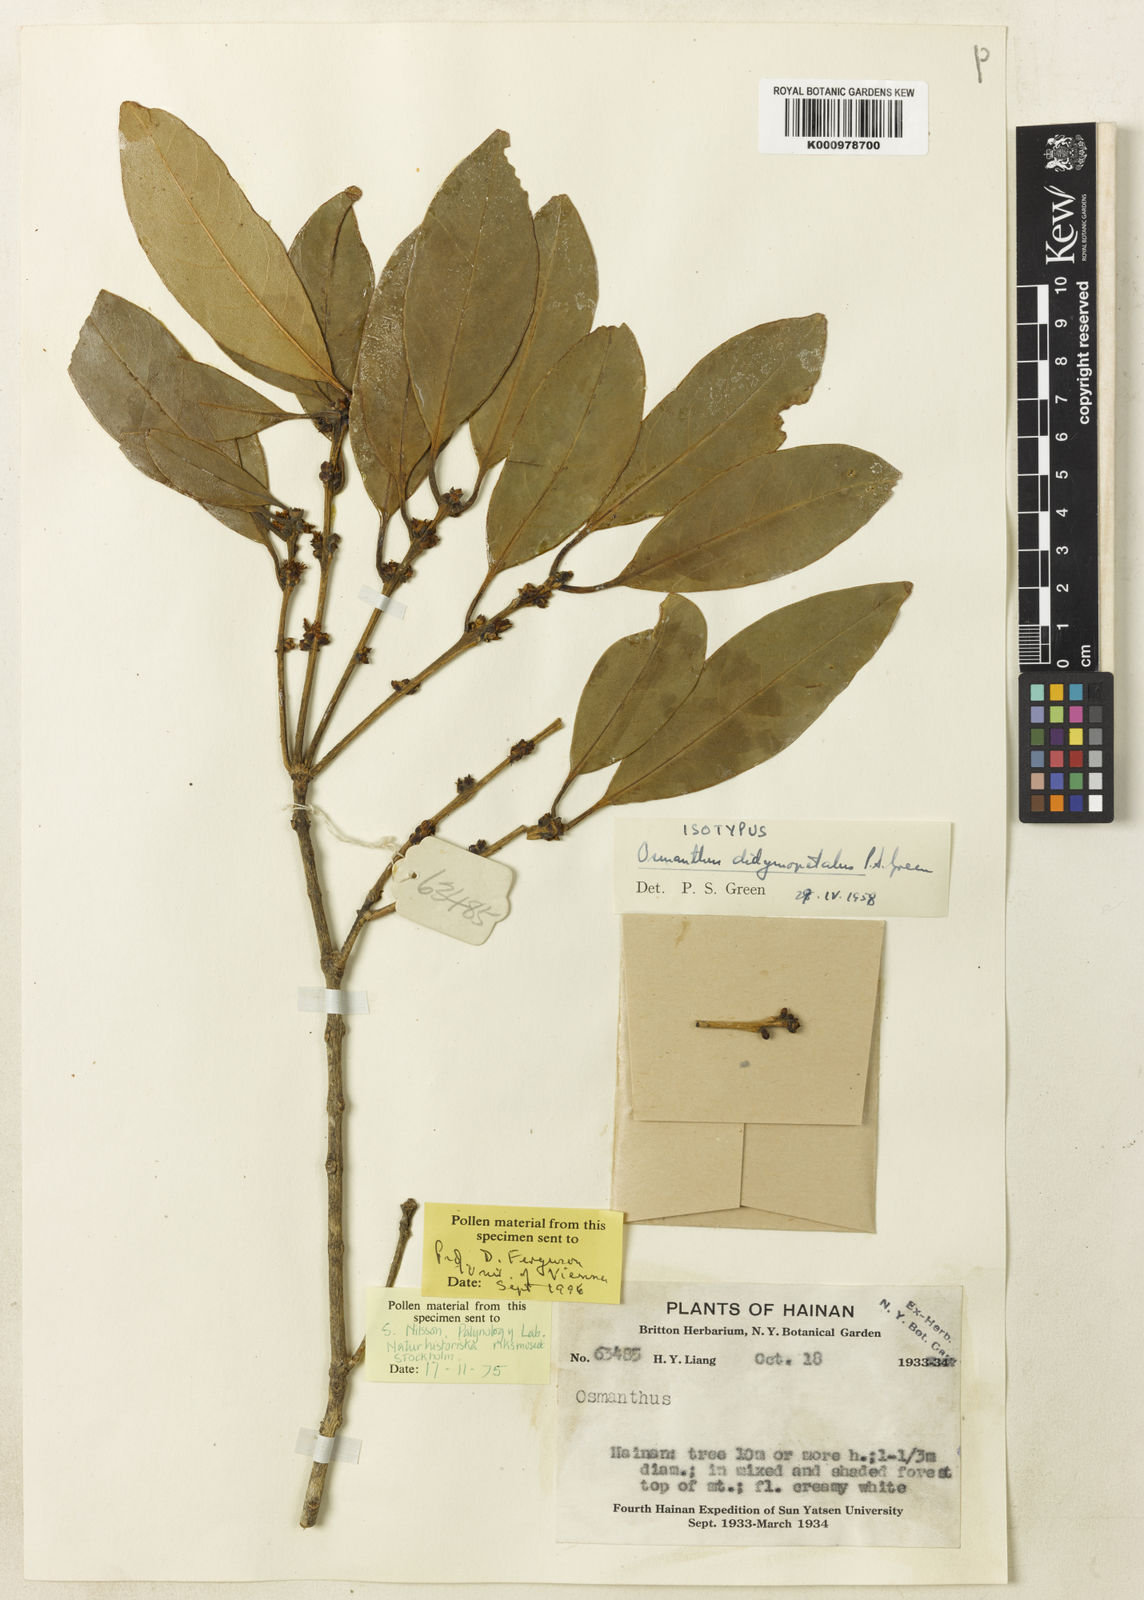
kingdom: Plantae
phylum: Tracheophyta
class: Magnoliopsida
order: Lamiales
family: Oleaceae
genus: Osmanthus
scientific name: Osmanthus didymopetalus
